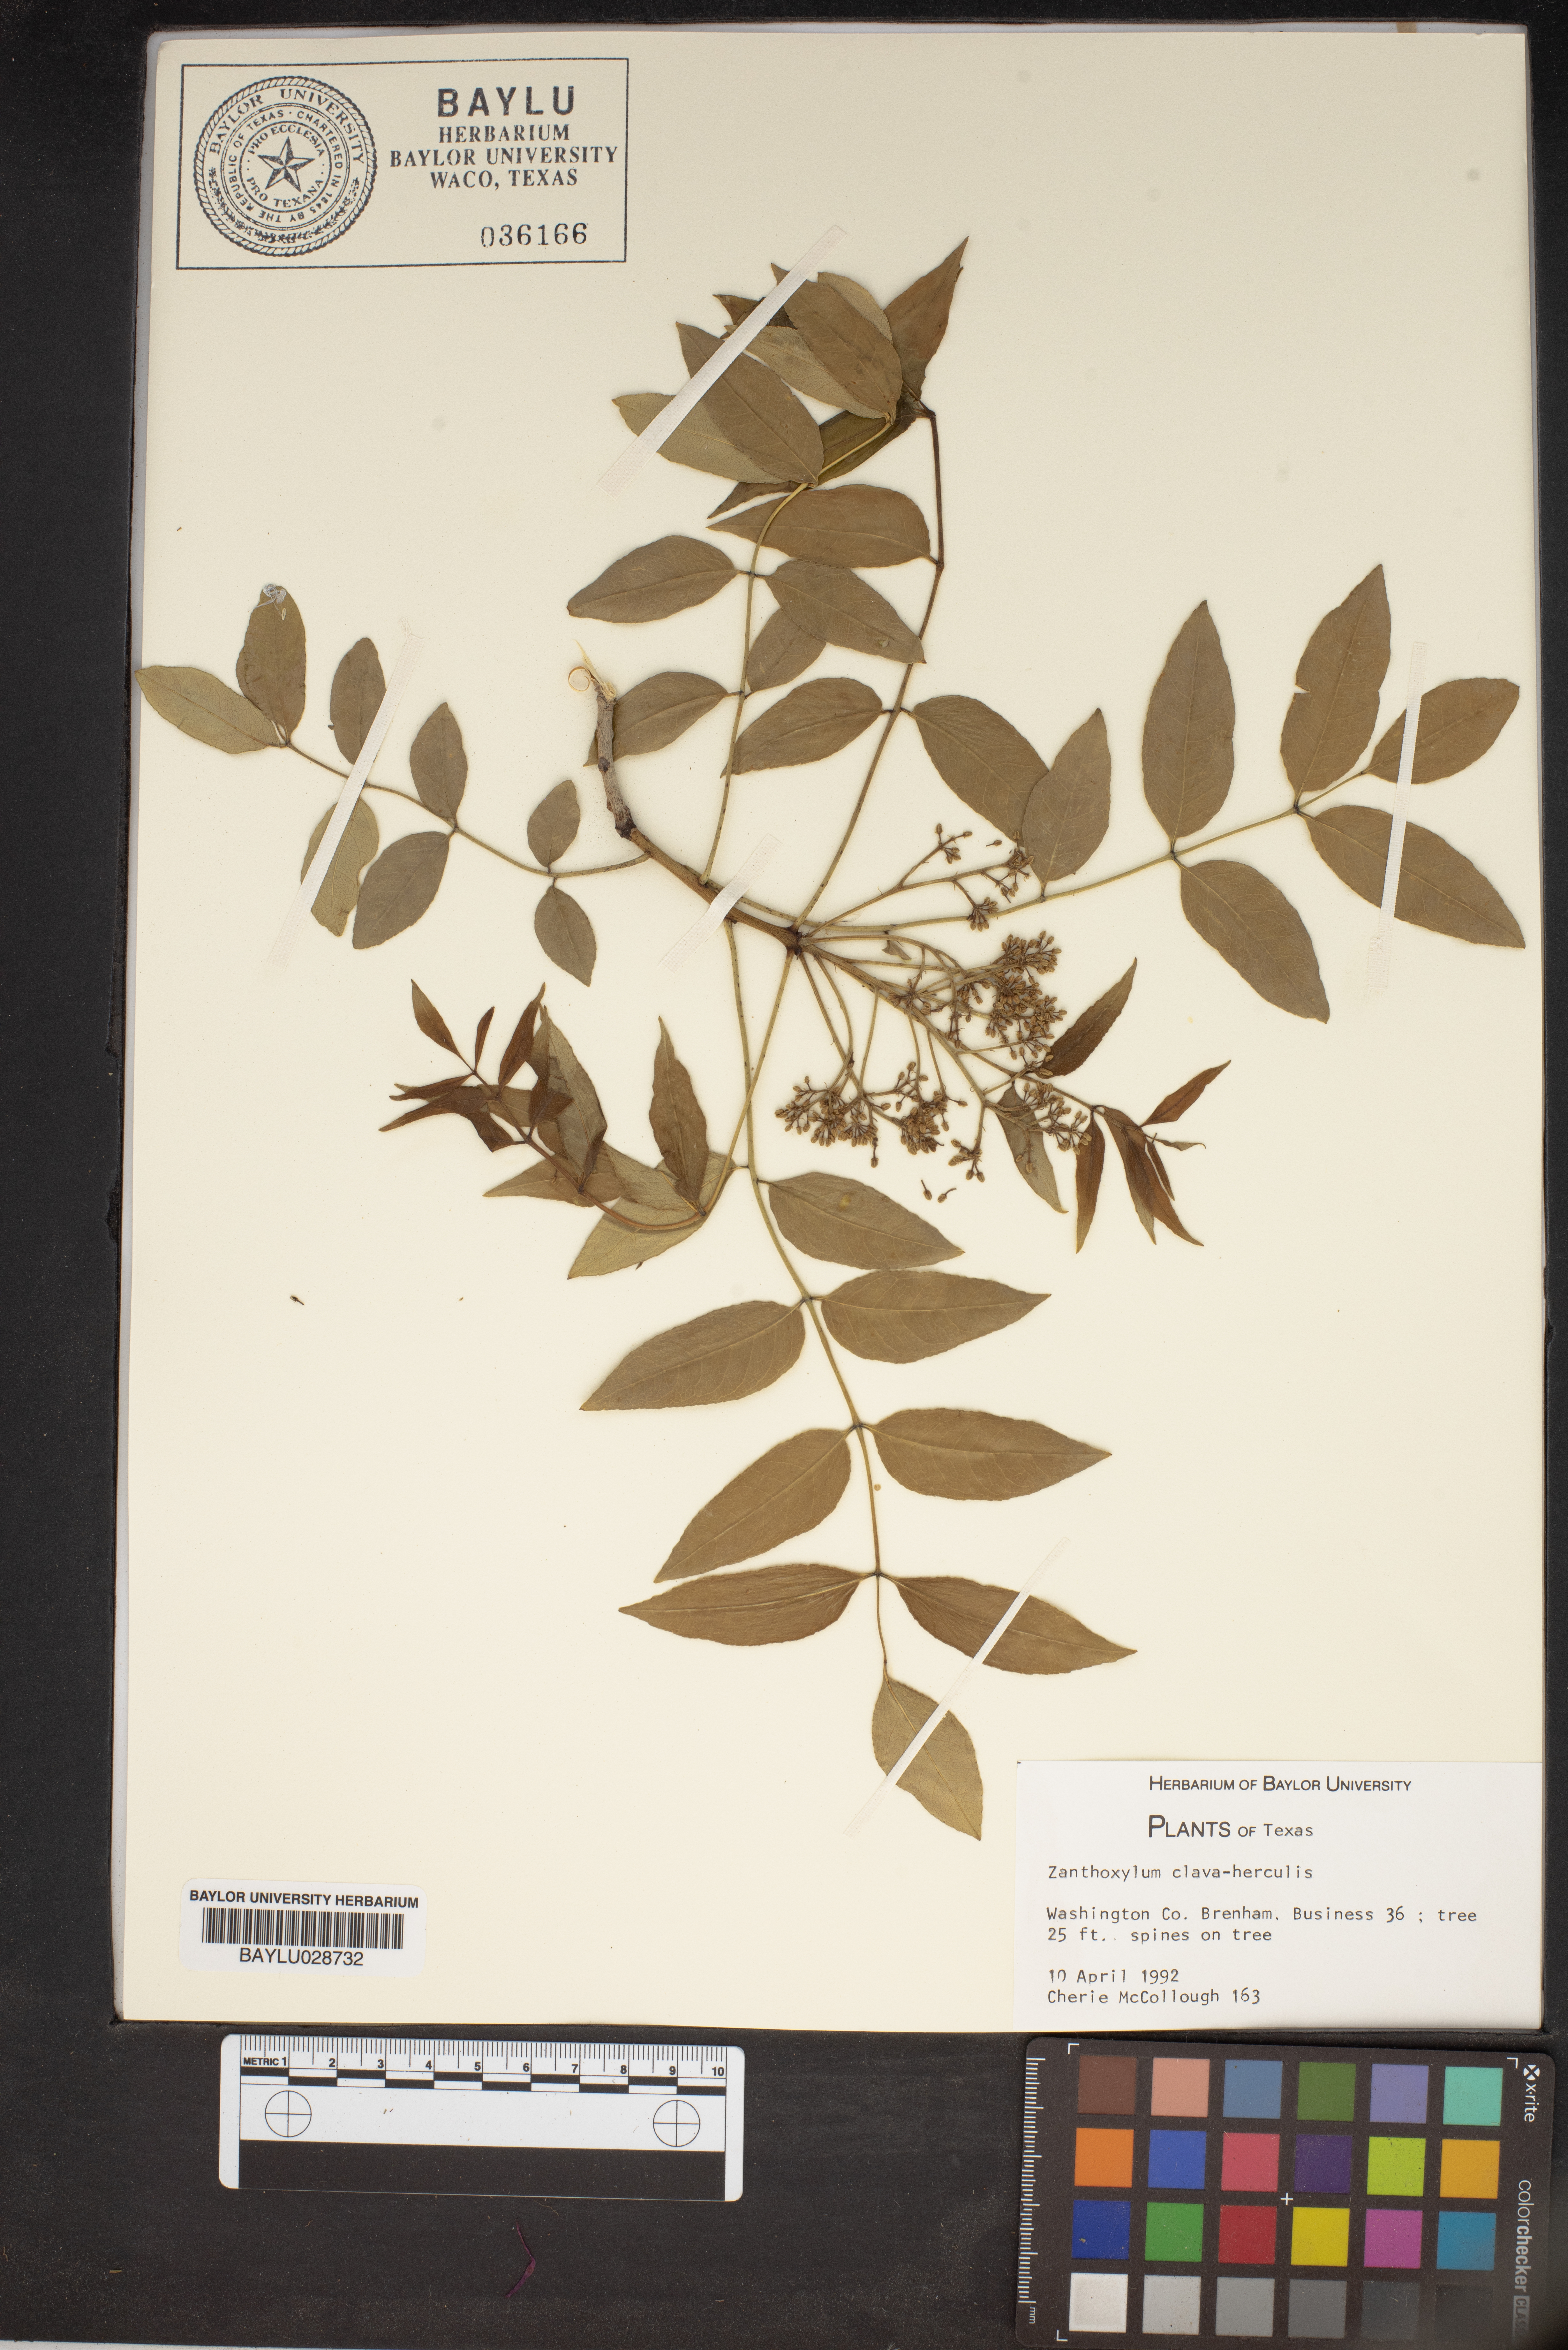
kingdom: Plantae
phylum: Tracheophyta
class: Magnoliopsida
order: Sapindales
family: Rutaceae
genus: Zanthoxylum
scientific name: Zanthoxylum avicennae
